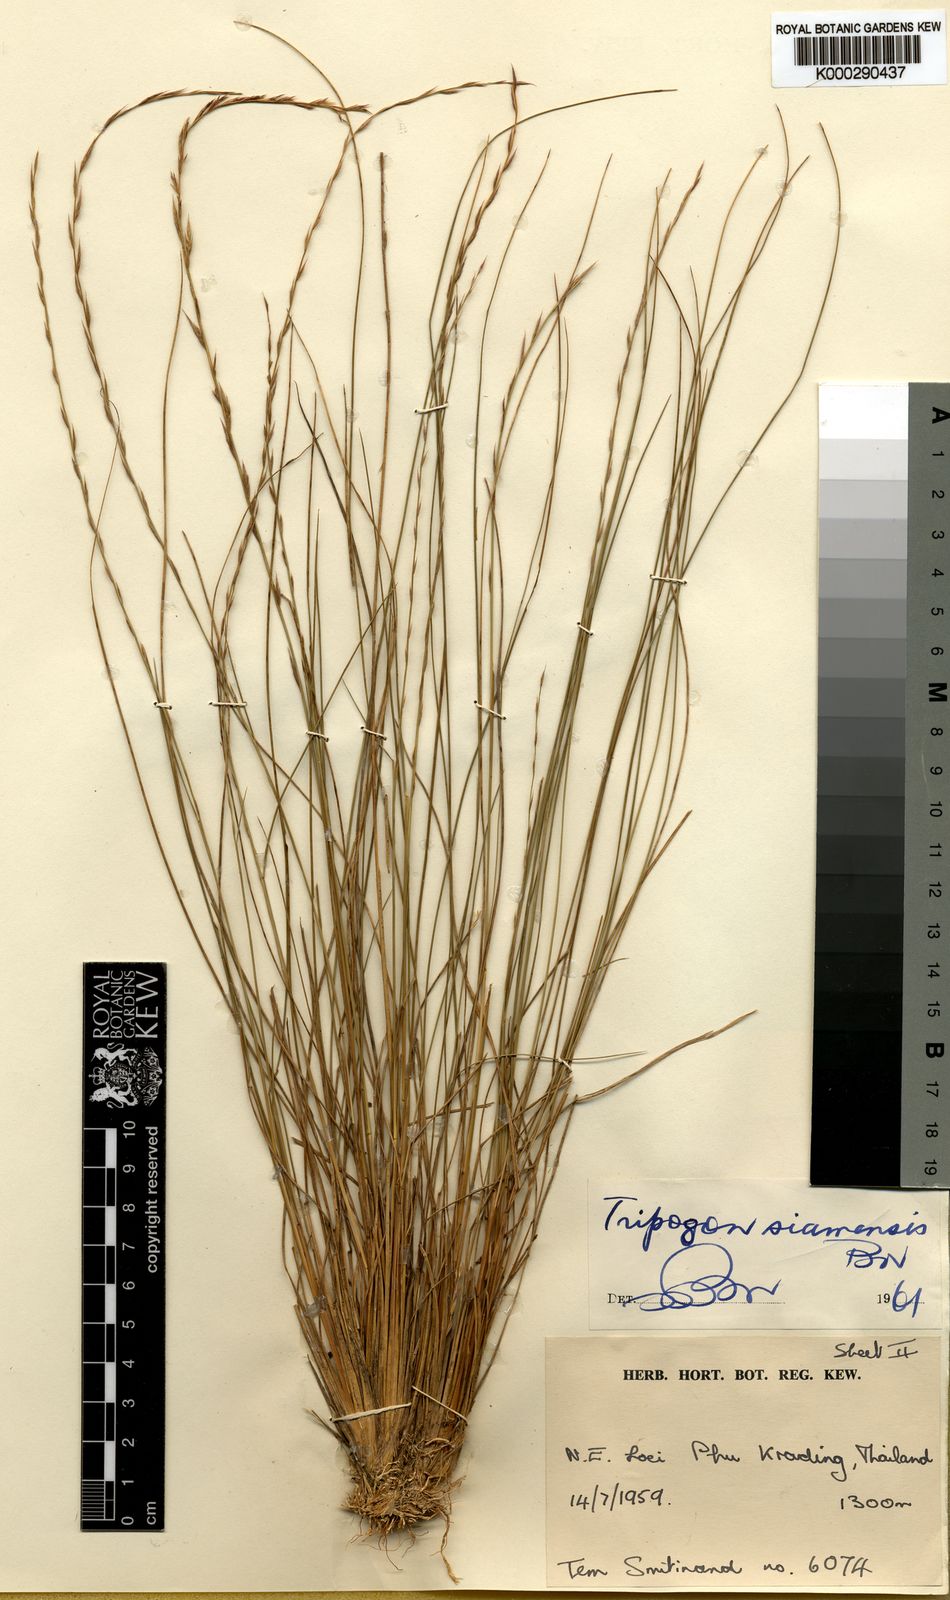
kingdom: Plantae
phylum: Tracheophyta
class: Liliopsida
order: Poales
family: Poaceae
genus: Tripogon
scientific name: Tripogon siamensis
